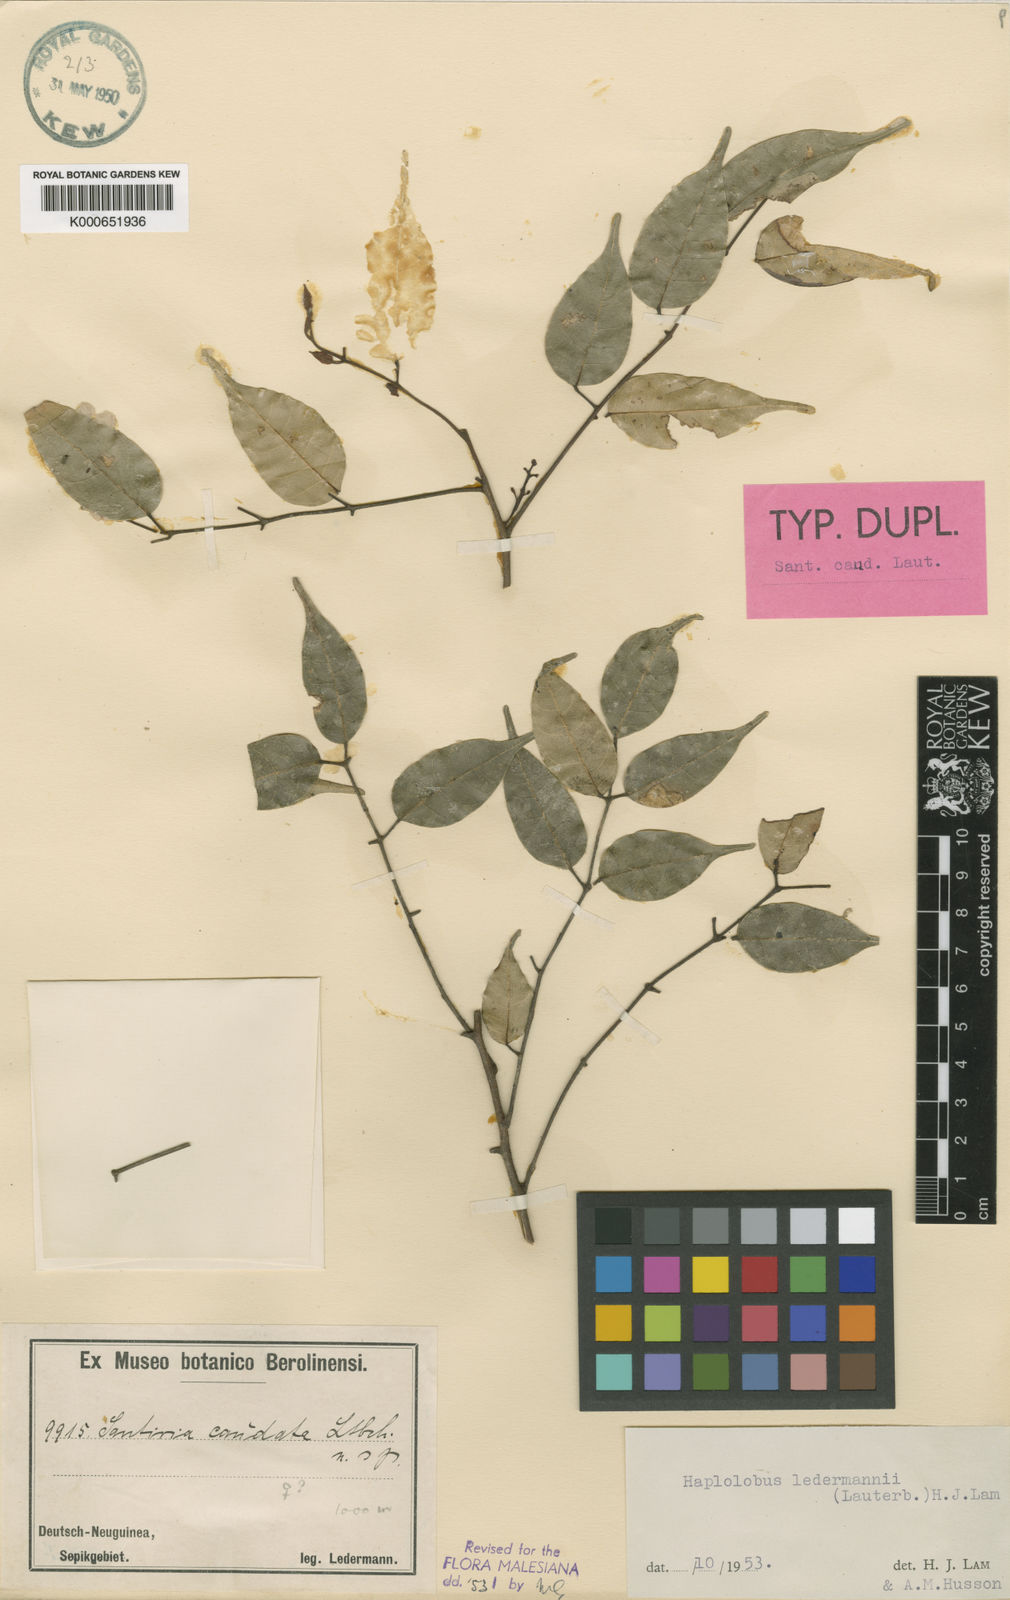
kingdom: Plantae
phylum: Tracheophyta
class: Magnoliopsida
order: Sapindales
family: Burseraceae
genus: Haplolobus
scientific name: Haplolobus floribundus
